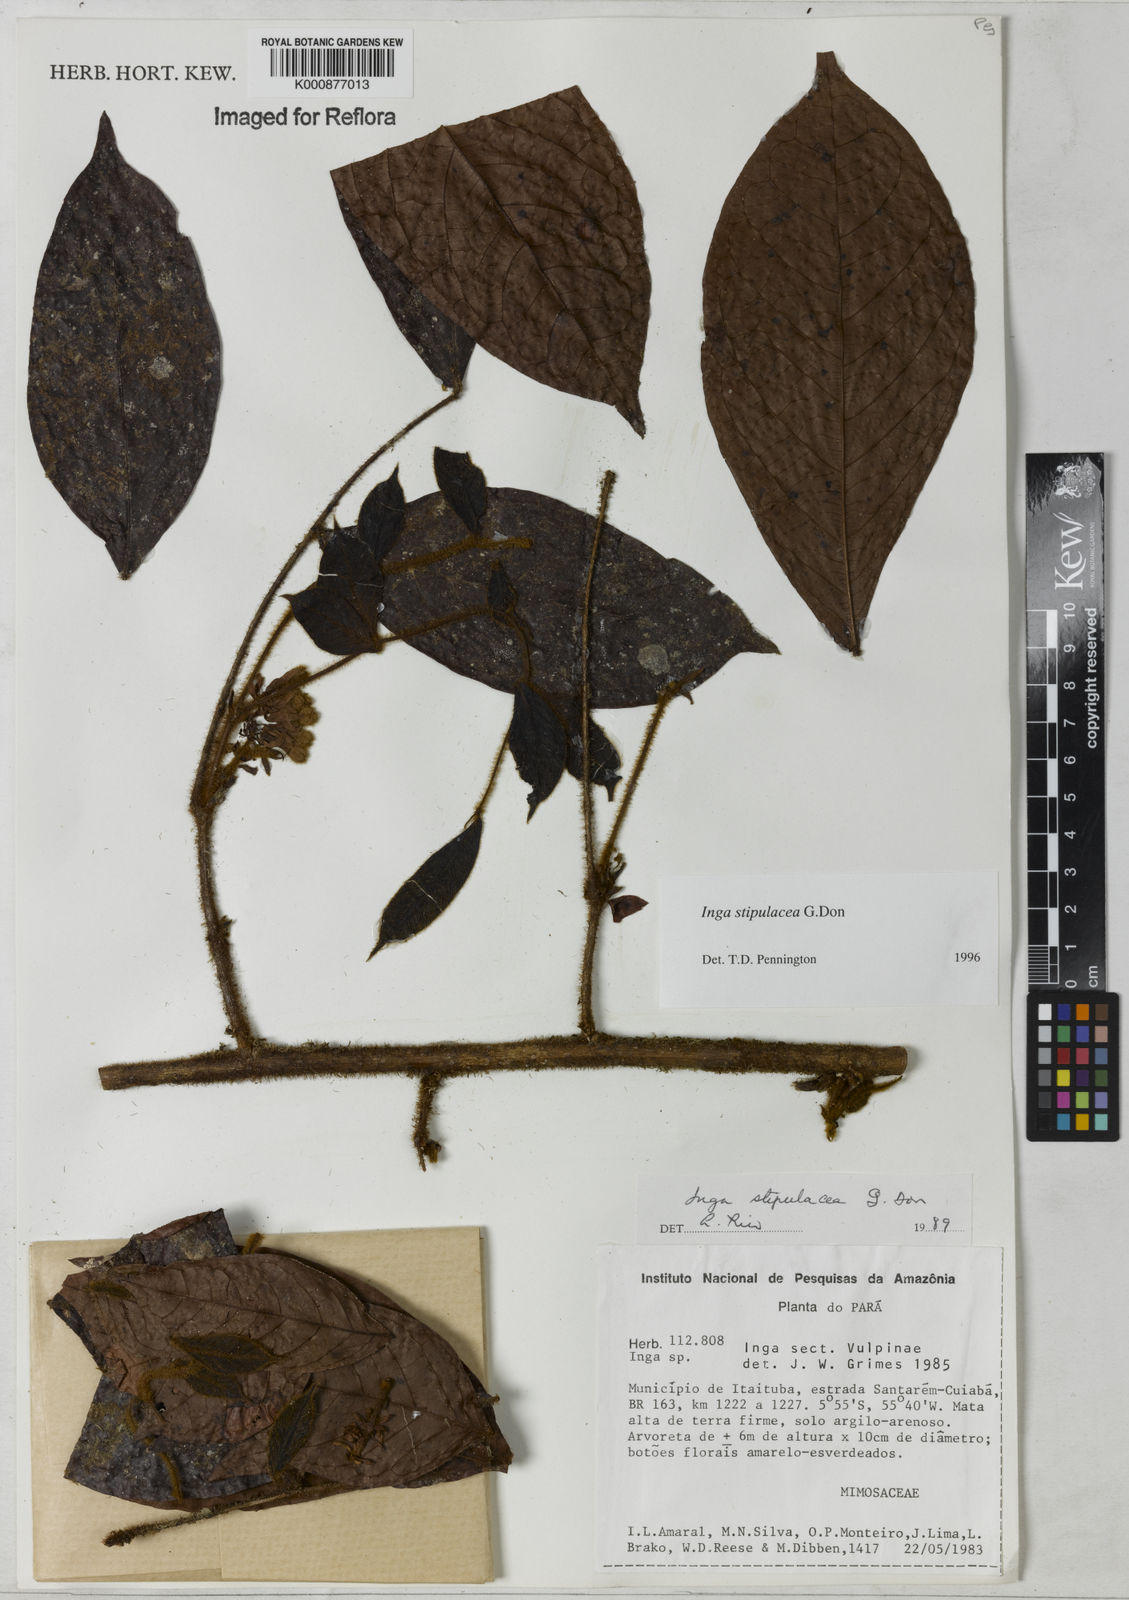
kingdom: Plantae
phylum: Tracheophyta
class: Magnoliopsida
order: Fabales
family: Fabaceae
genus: Inga
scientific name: Inga stipulacea
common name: Stipulate inga
